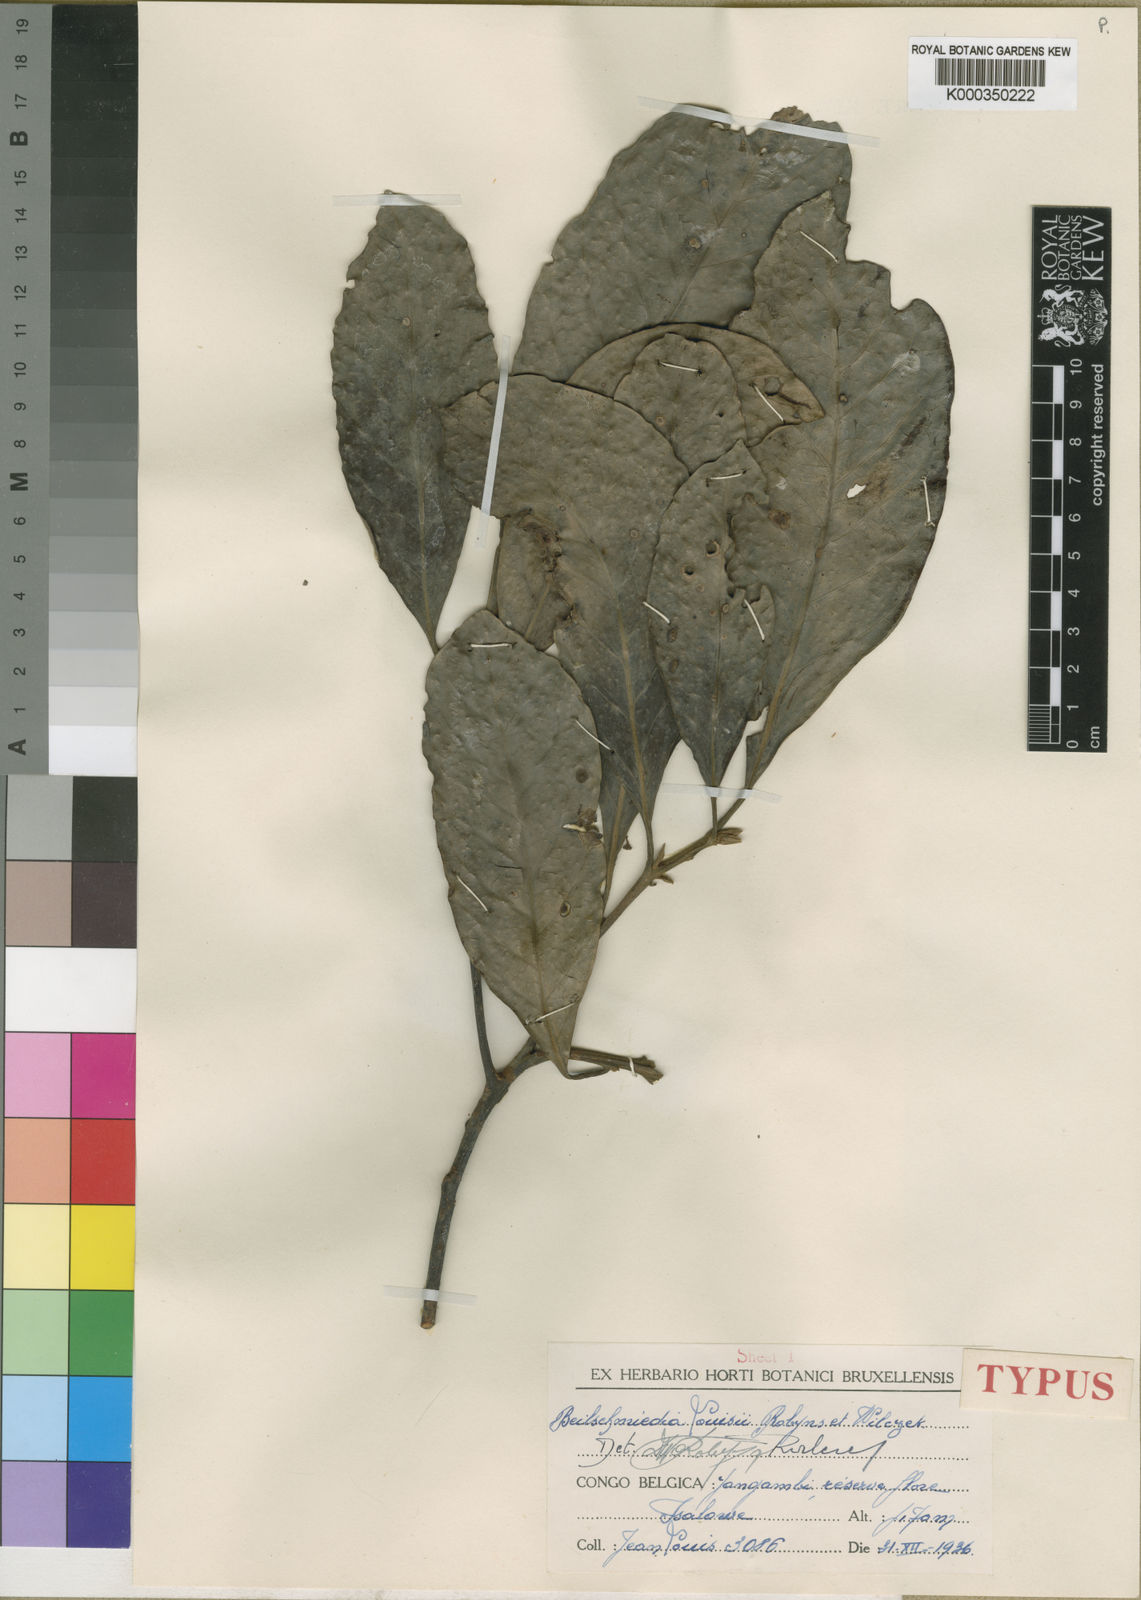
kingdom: Plantae
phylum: Tracheophyta
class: Magnoliopsida
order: Laurales
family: Lauraceae
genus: Beilschmiedia
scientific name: Beilschmiedia louisii
